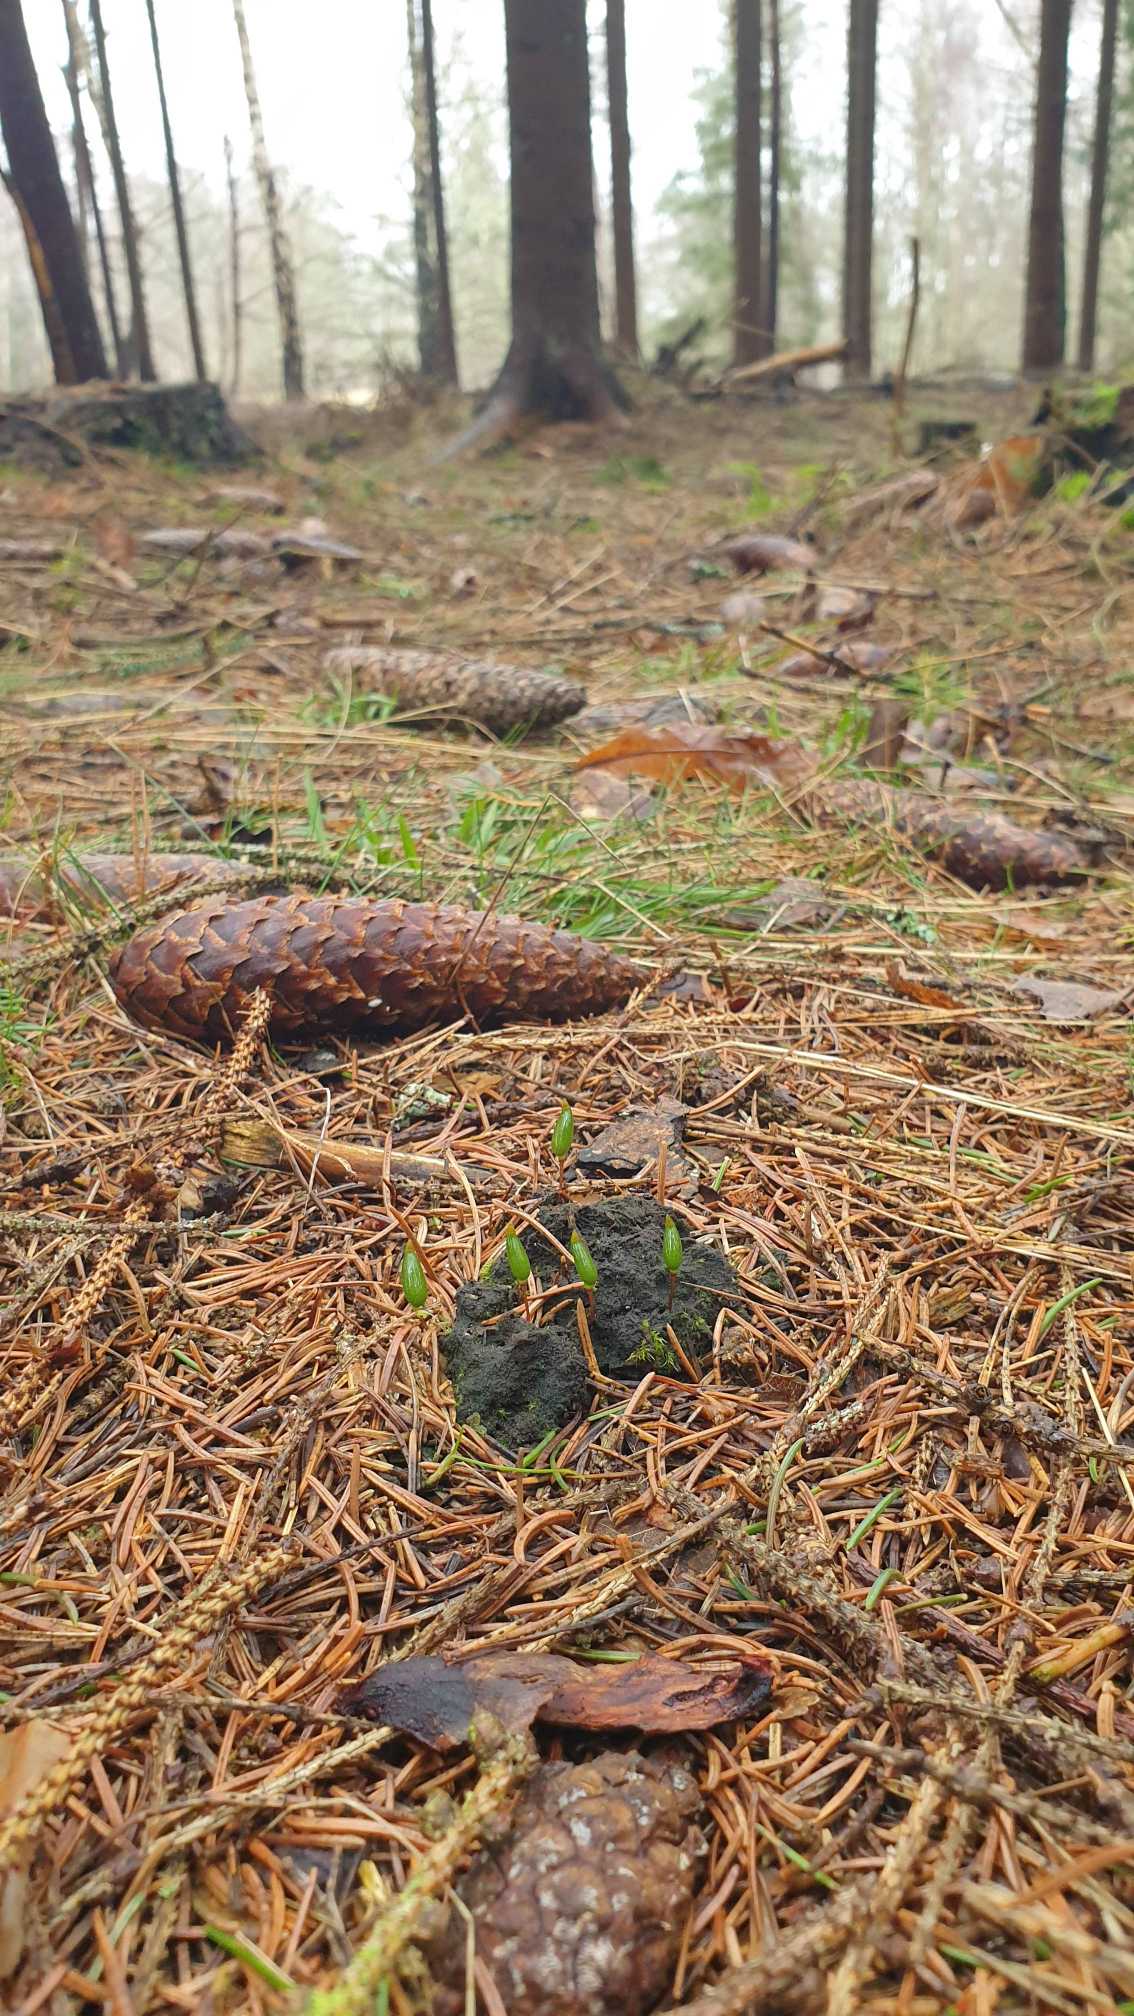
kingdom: Plantae
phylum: Bryophyta
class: Bryopsida
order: Buxbaumiales
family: Buxbaumiaceae
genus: Buxbaumia
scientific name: Buxbaumia viridis
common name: Grøn buxbaumia
